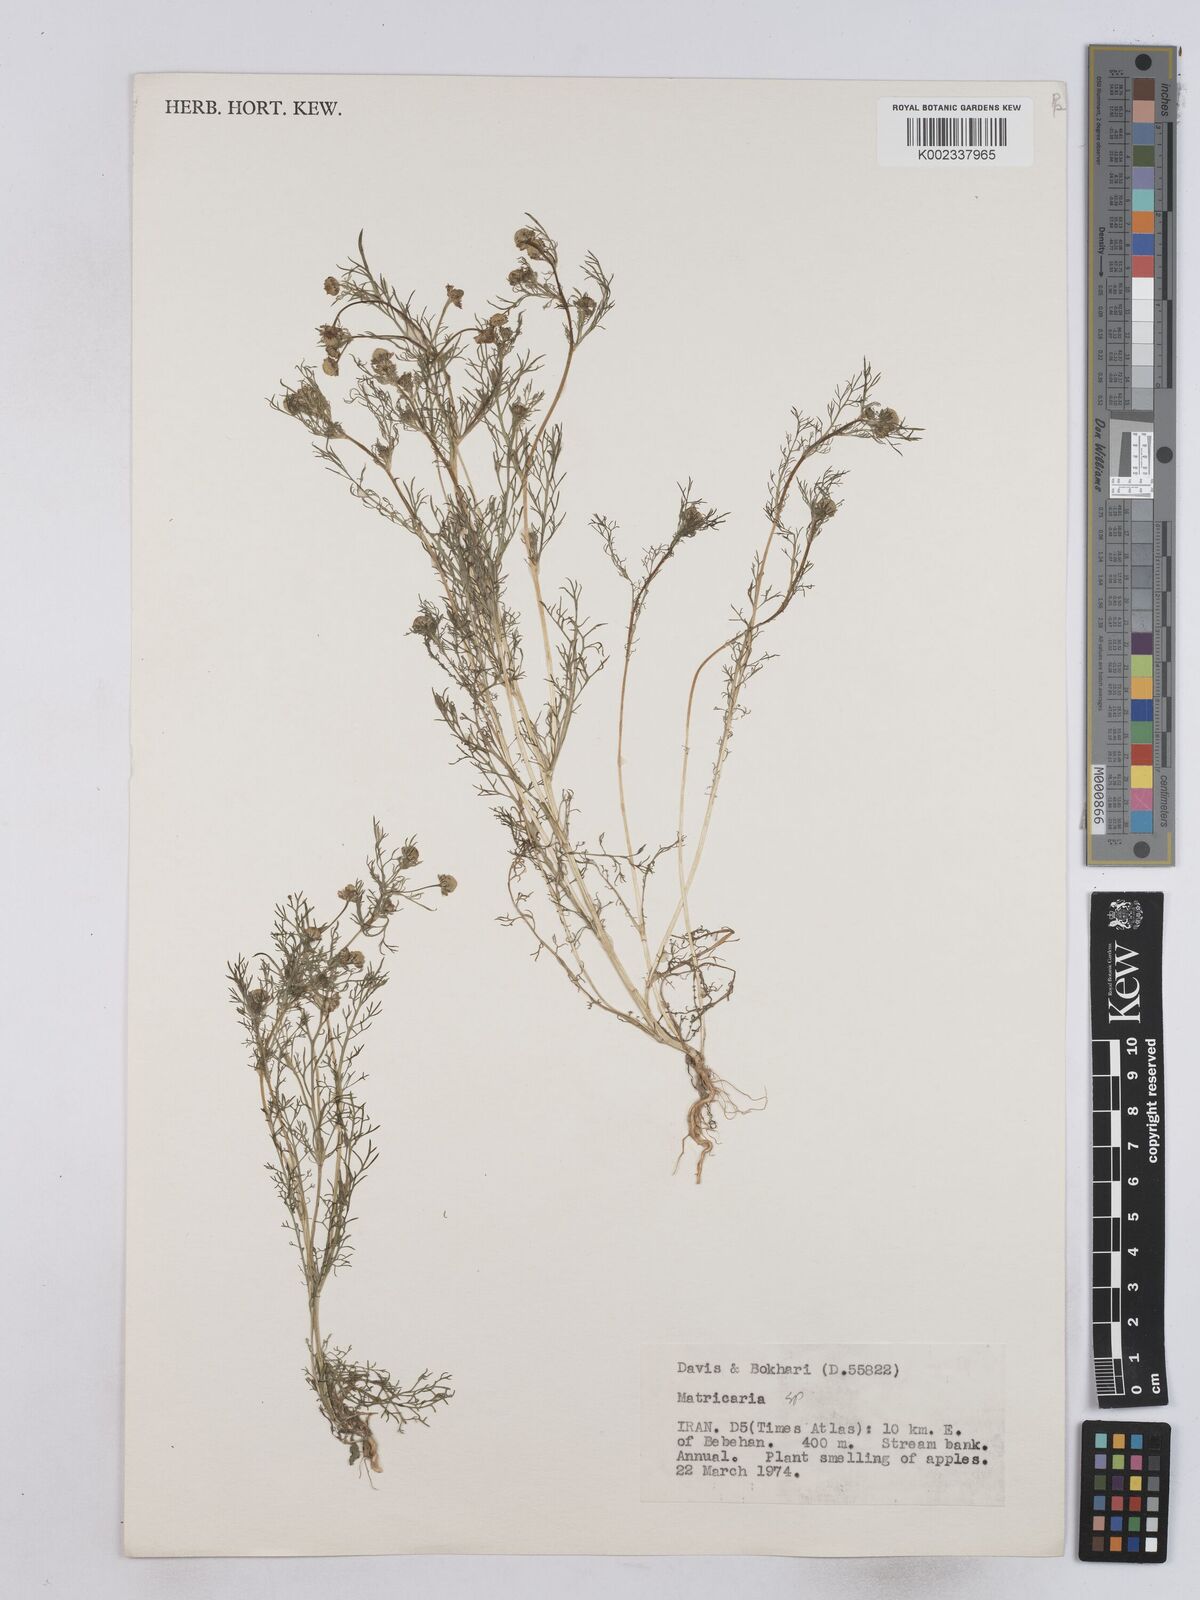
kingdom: Plantae
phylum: Tracheophyta
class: Magnoliopsida
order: Asterales
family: Asteraceae
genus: Matricaria
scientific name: Matricaria aurea
